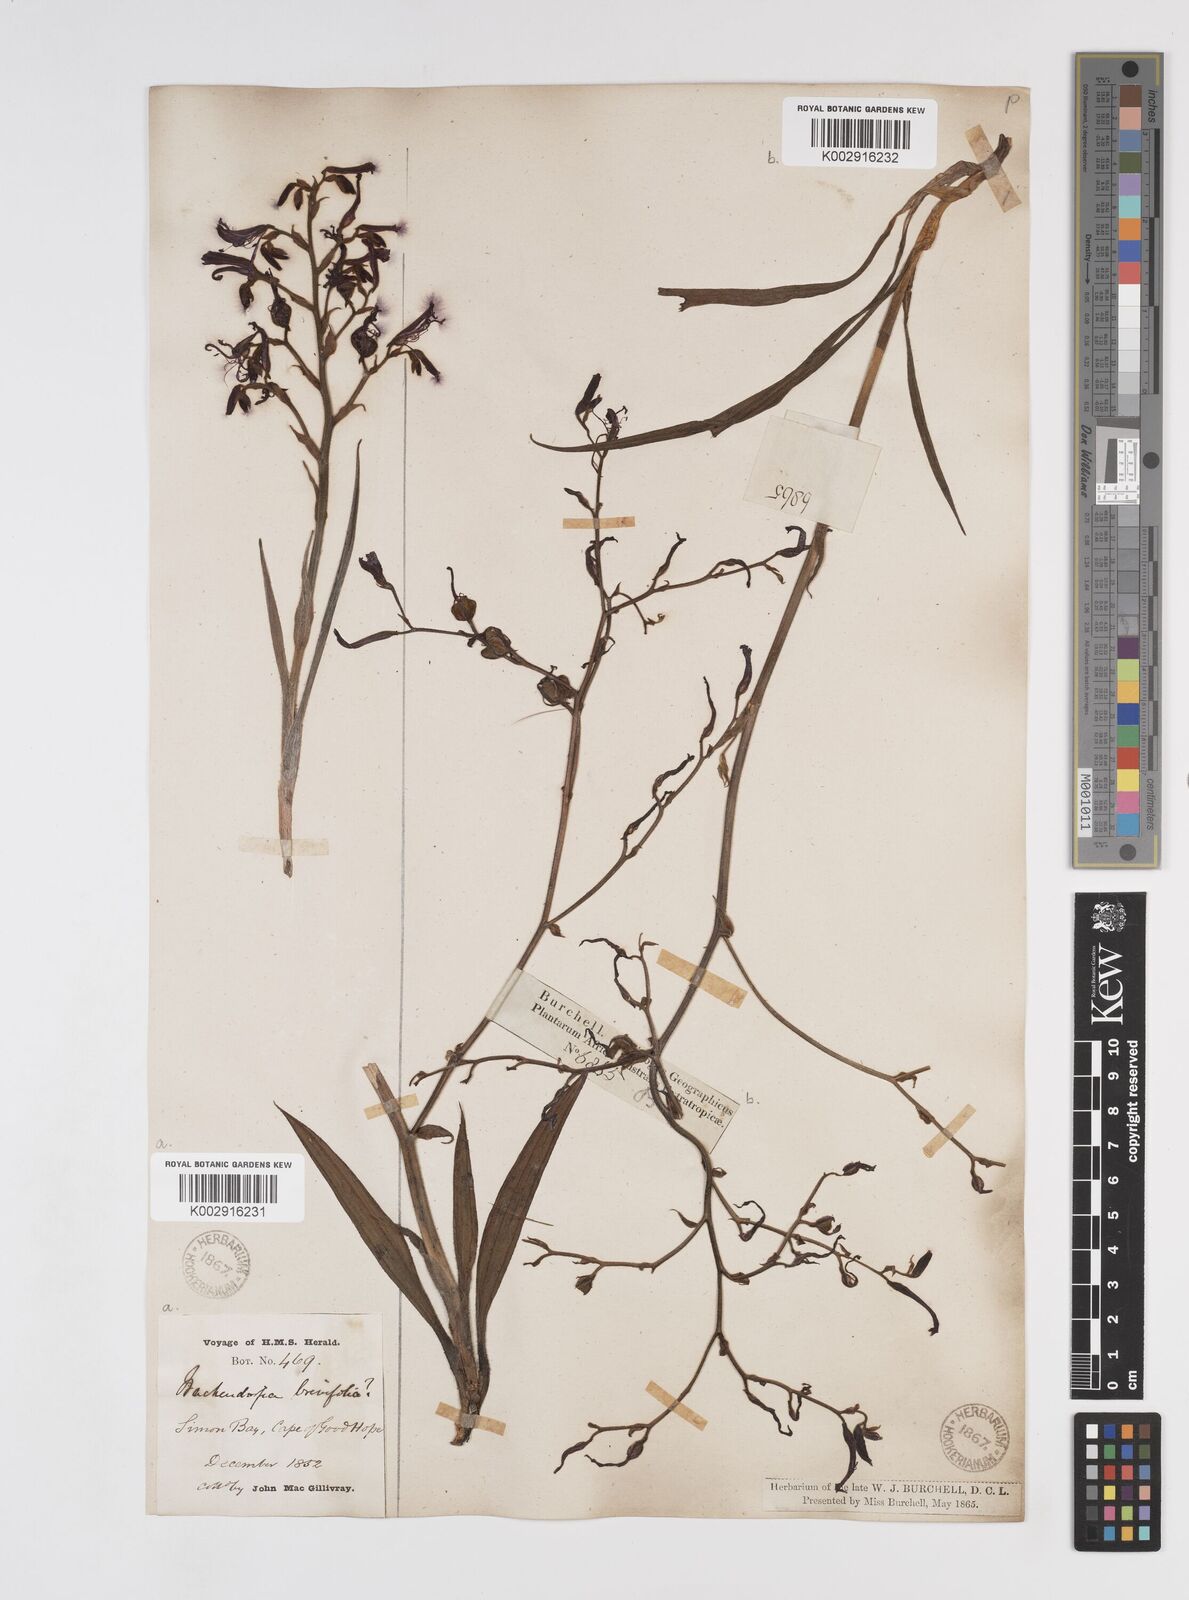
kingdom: Plantae
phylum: Tracheophyta
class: Liliopsida
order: Commelinales
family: Haemodoraceae
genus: Wachendorfia
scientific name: Wachendorfia paniculata
